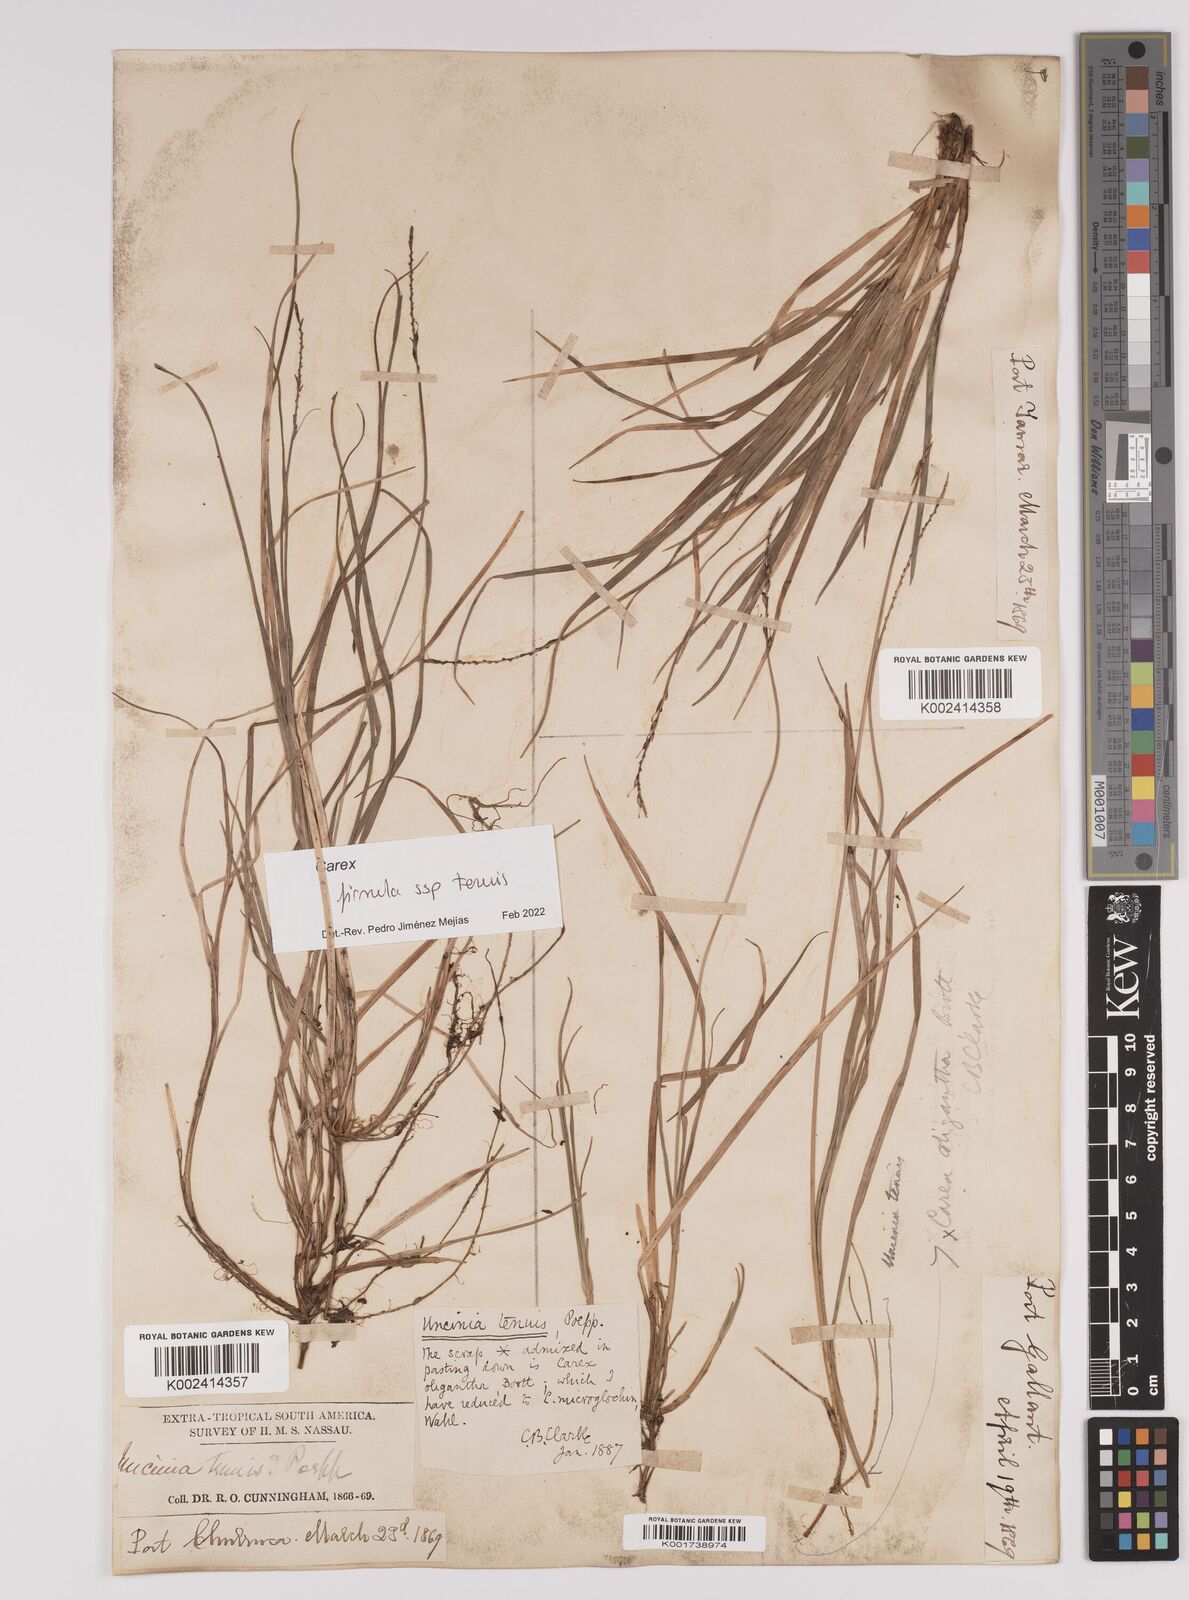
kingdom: Plantae
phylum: Tracheophyta
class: Liliopsida
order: Poales
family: Cyperaceae
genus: Carex
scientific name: Carex firmula
